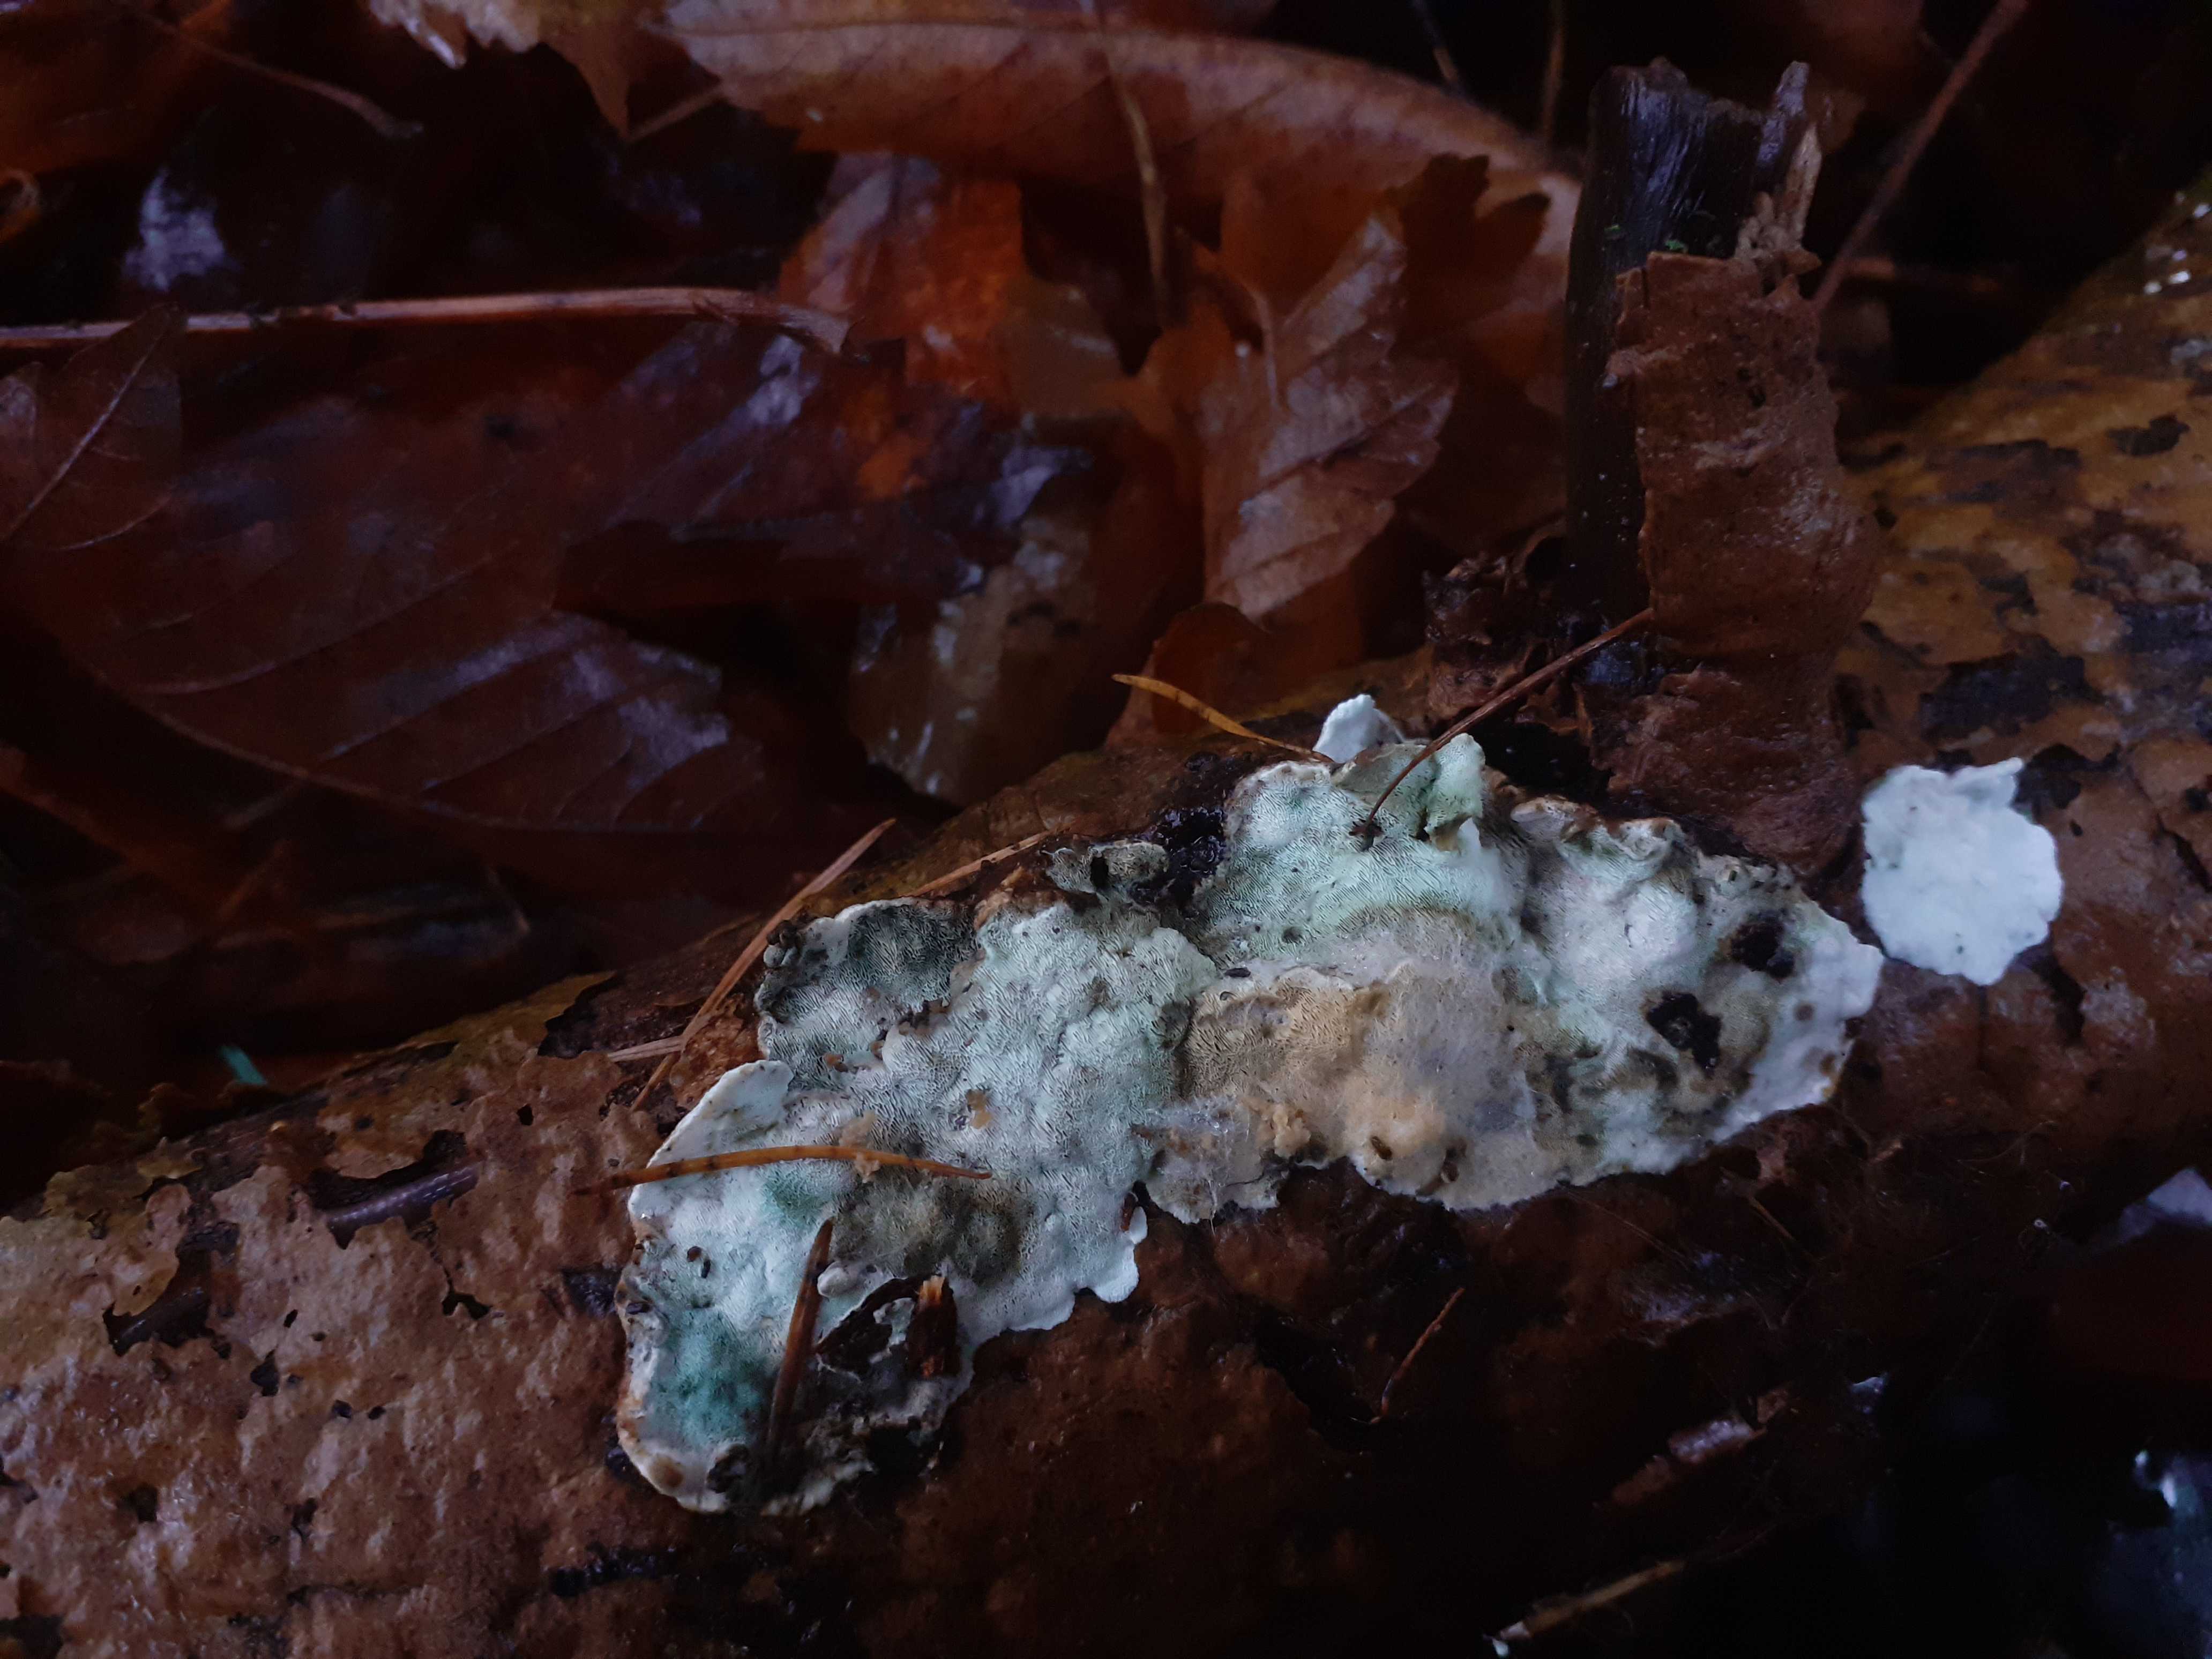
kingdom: Fungi
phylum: Basidiomycota
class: Agaricomycetes
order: Polyporales
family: Incrustoporiaceae
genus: Skeletocutis
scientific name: Skeletocutis nemoralis
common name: stor krystalporesvamp
